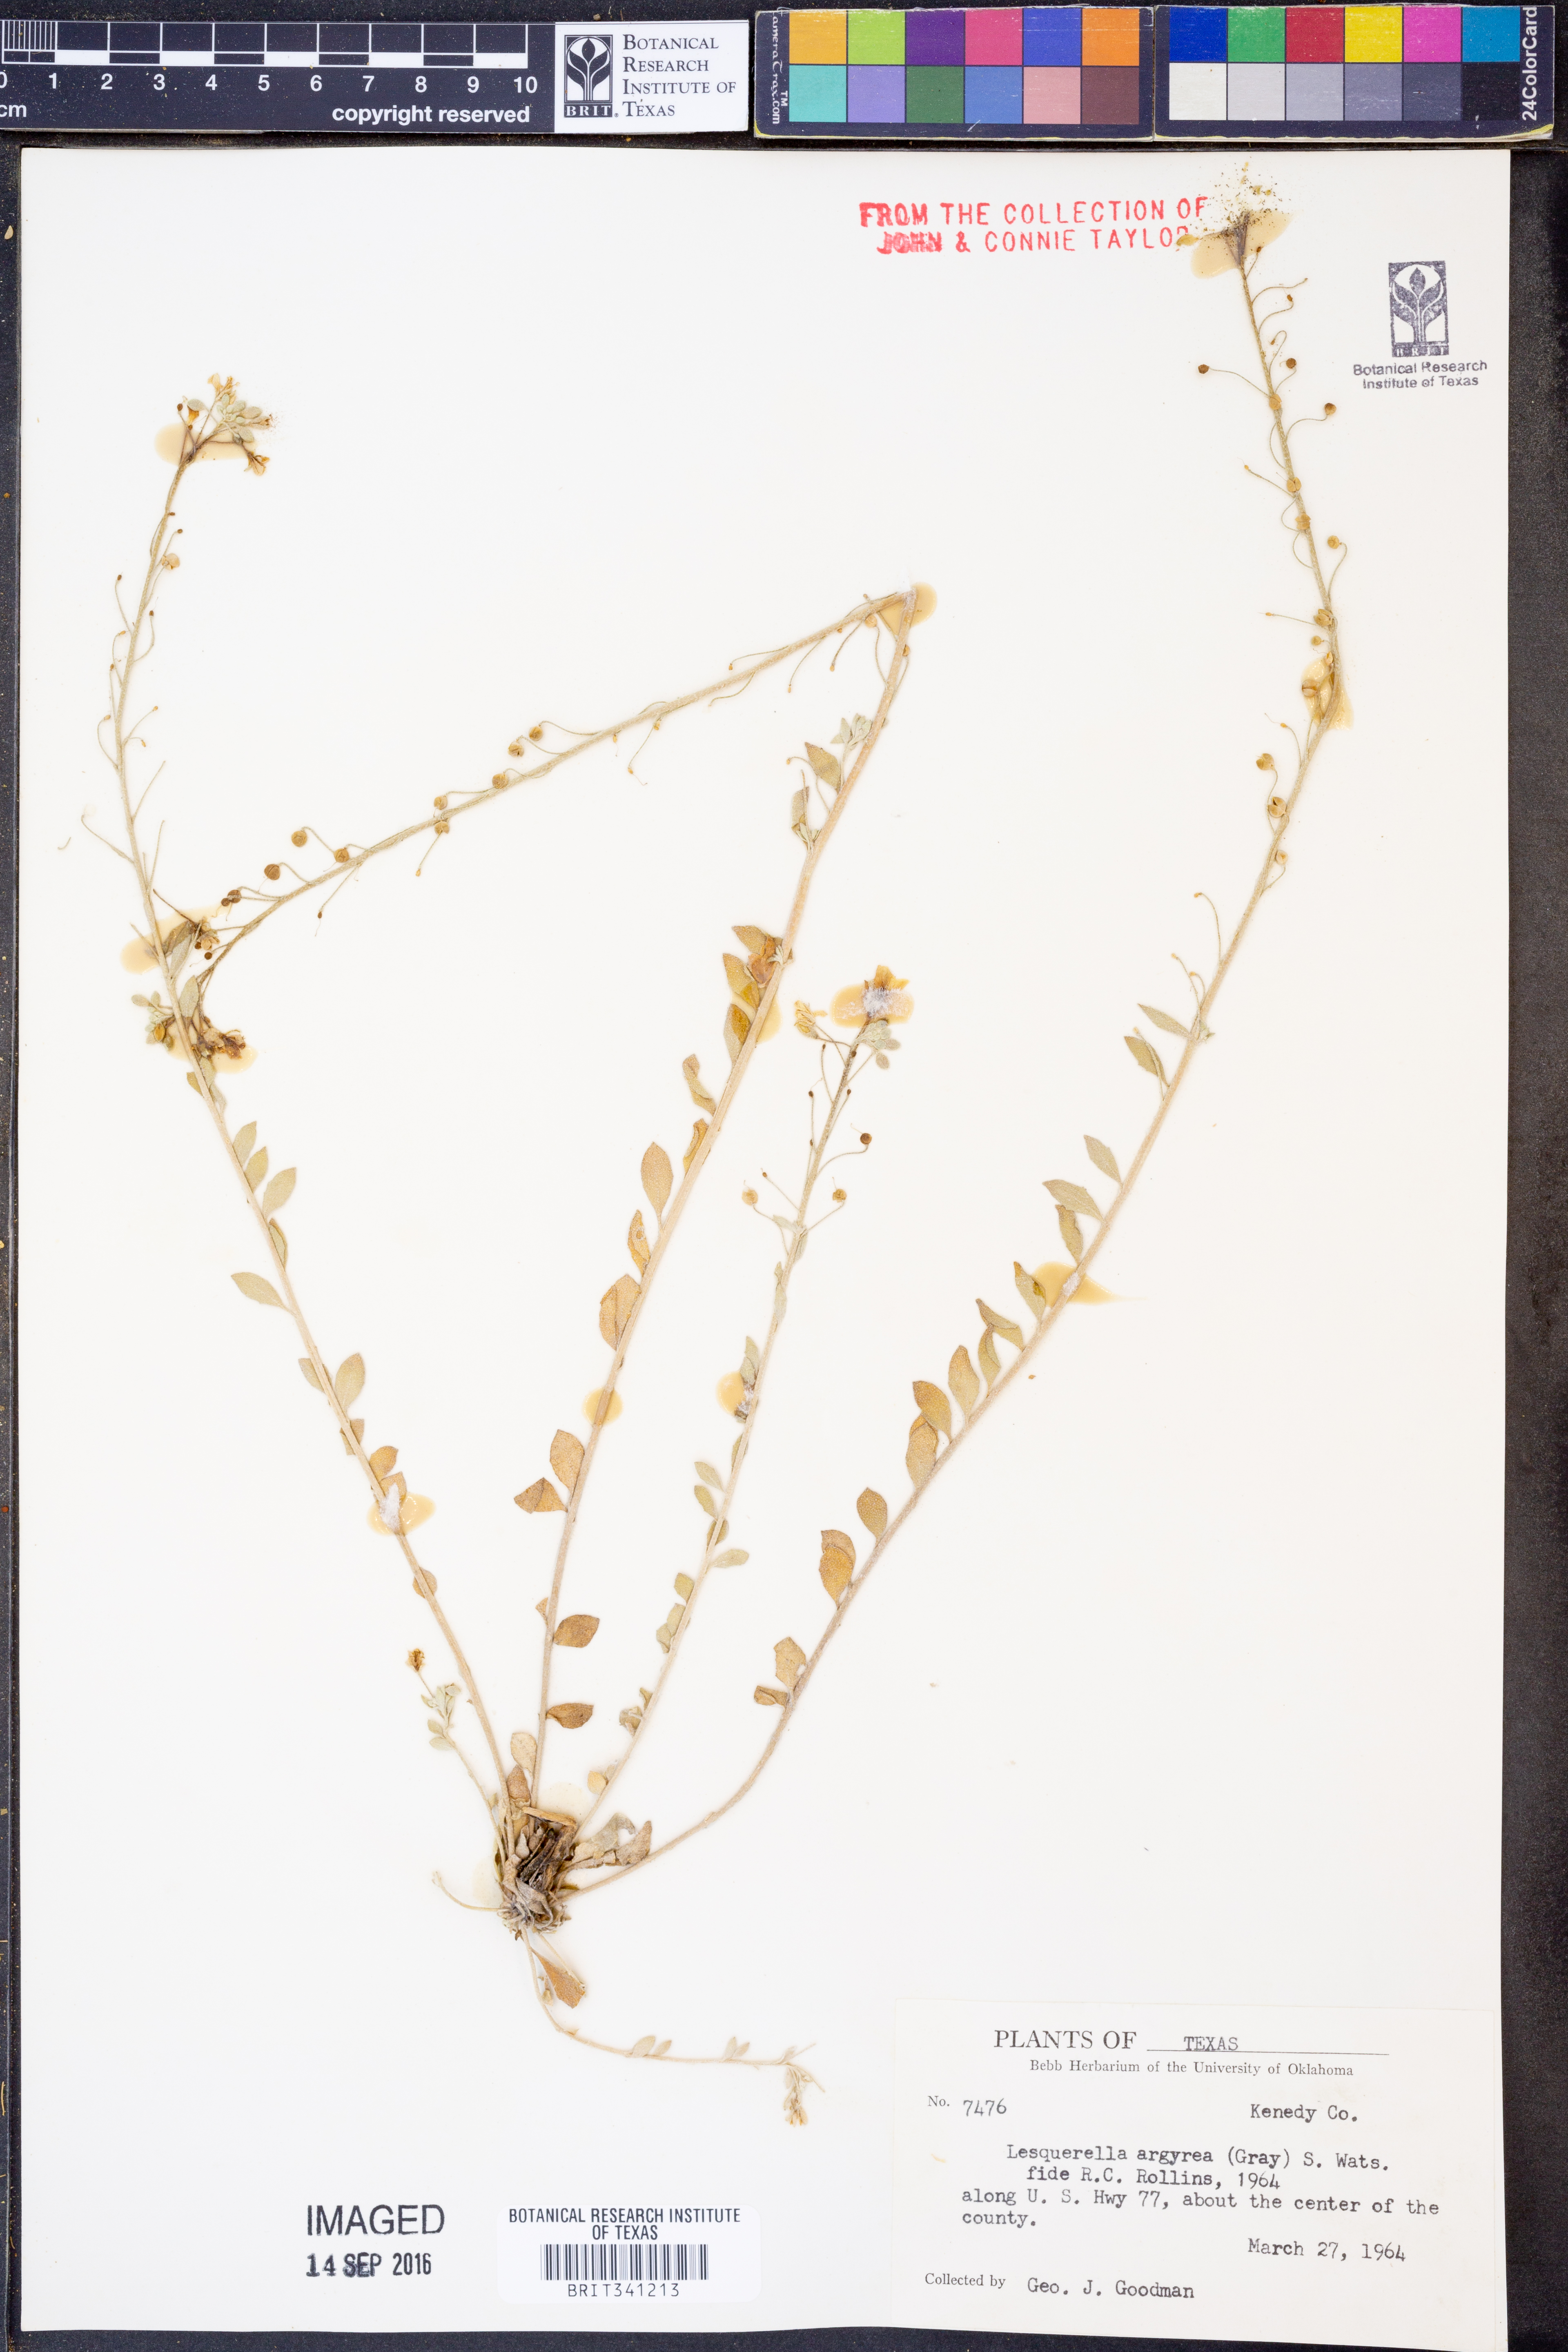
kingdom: Plantae
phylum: Tracheophyta
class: Magnoliopsida
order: Brassicales
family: Brassicaceae
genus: Physaria
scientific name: Physaria argyraea
